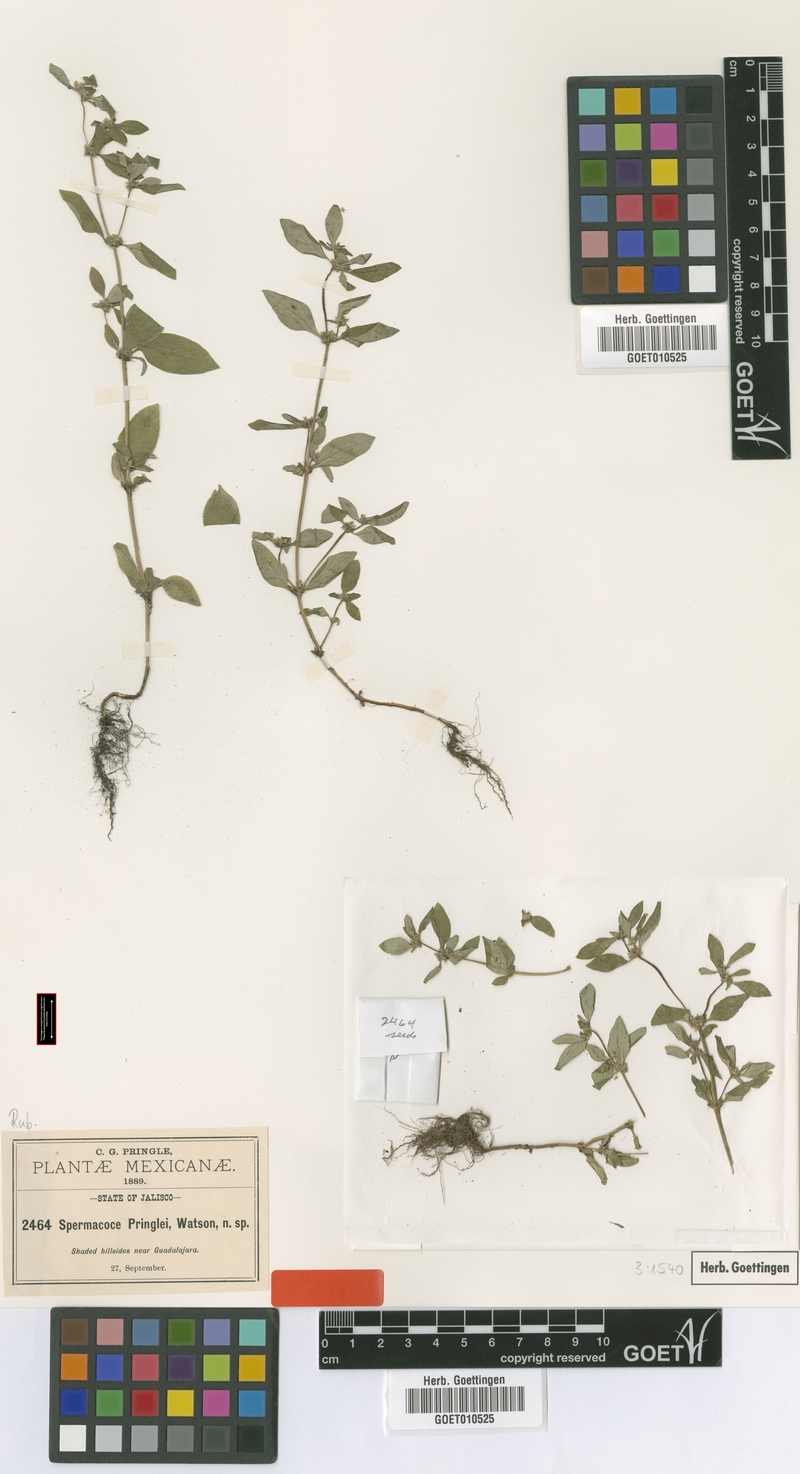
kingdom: Plantae
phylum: Tracheophyta
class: Magnoliopsida
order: Gentianales
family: Rubiaceae
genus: Spermacoce
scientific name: Spermacoce ovalifolia
